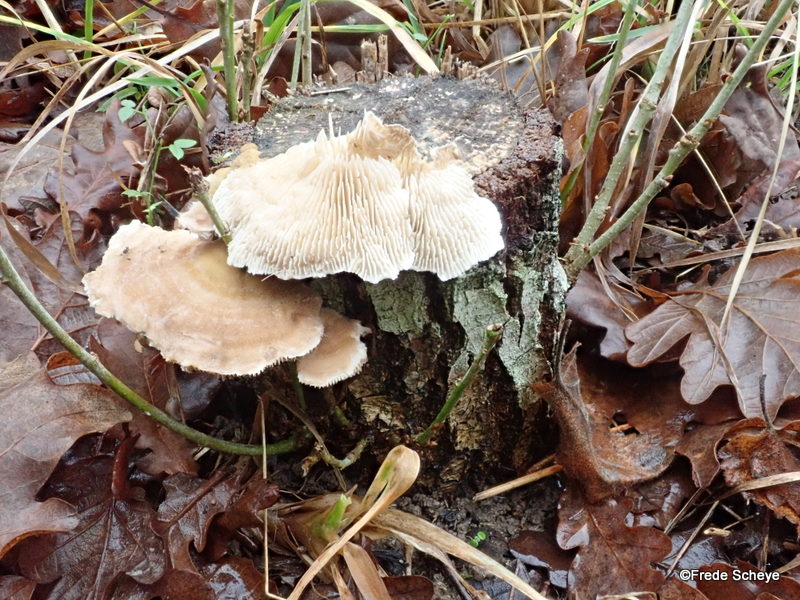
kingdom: Fungi
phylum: Basidiomycota
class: Agaricomycetes
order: Polyporales
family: Polyporaceae
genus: Lenzites
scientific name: Lenzites betulinus
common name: birke-læderporesvamp
